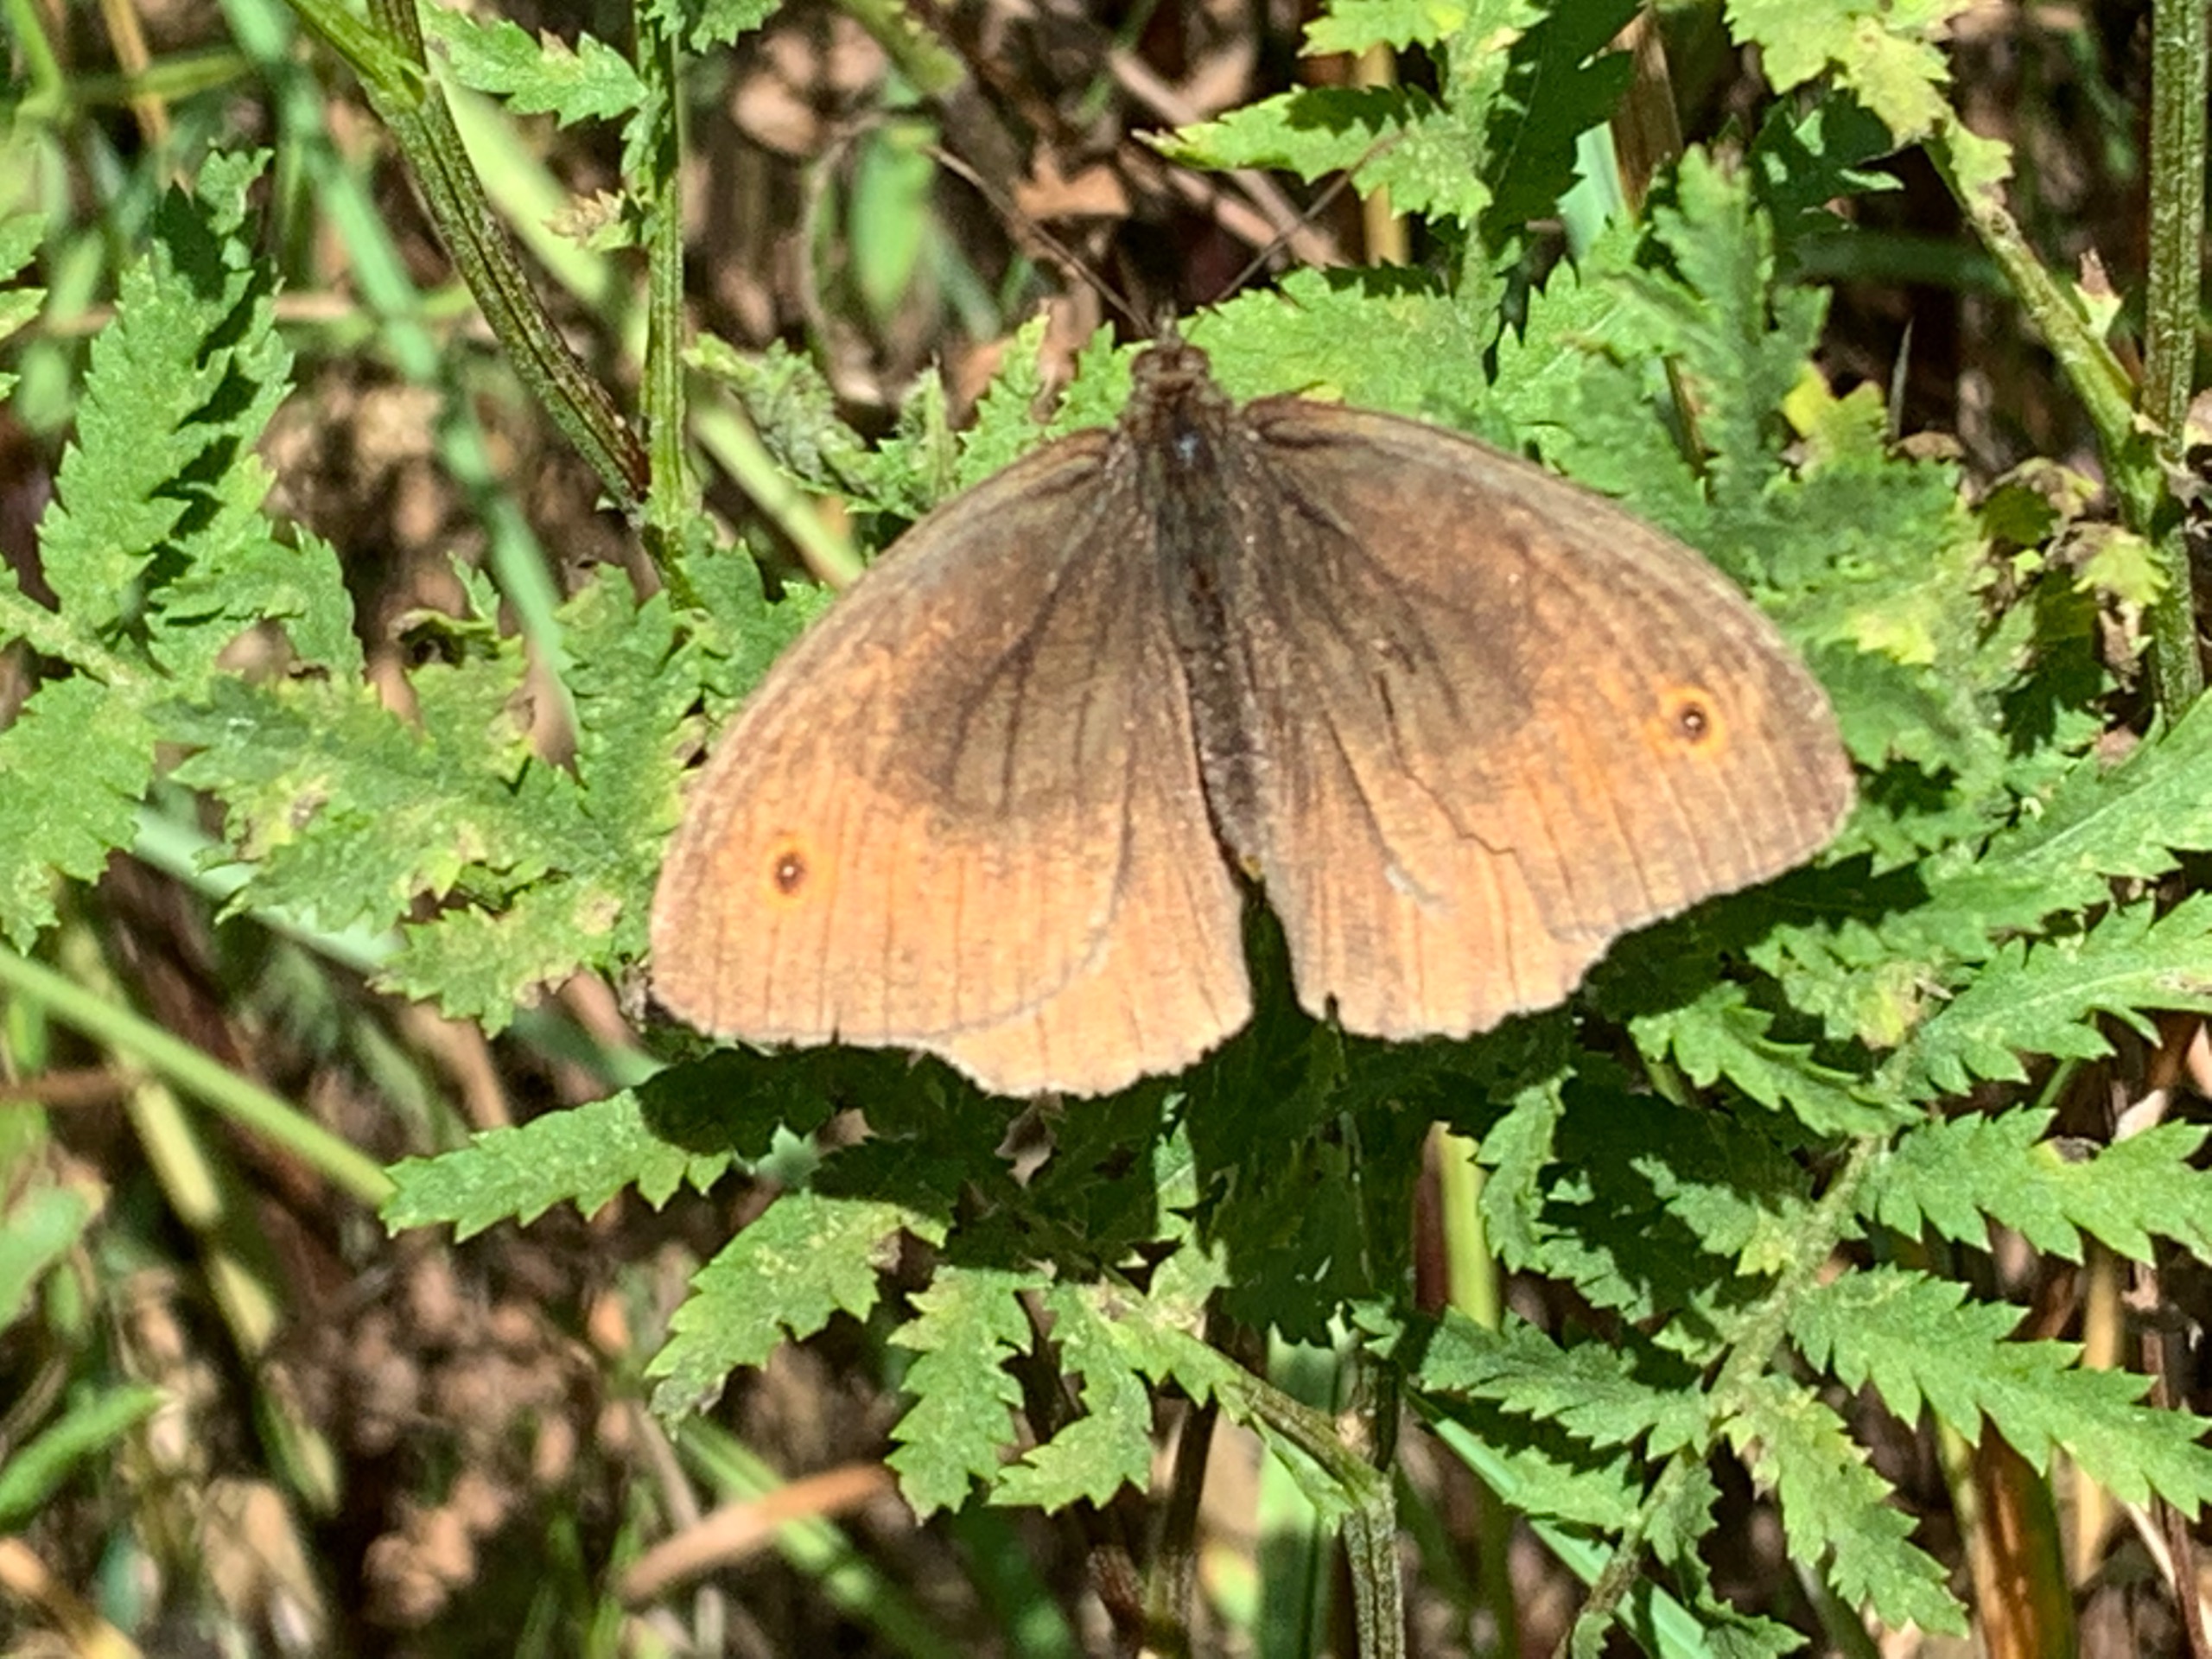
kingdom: Animalia
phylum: Arthropoda
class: Insecta
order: Lepidoptera
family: Nymphalidae
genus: Maniola
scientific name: Maniola jurtina
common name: Græsrandøje
